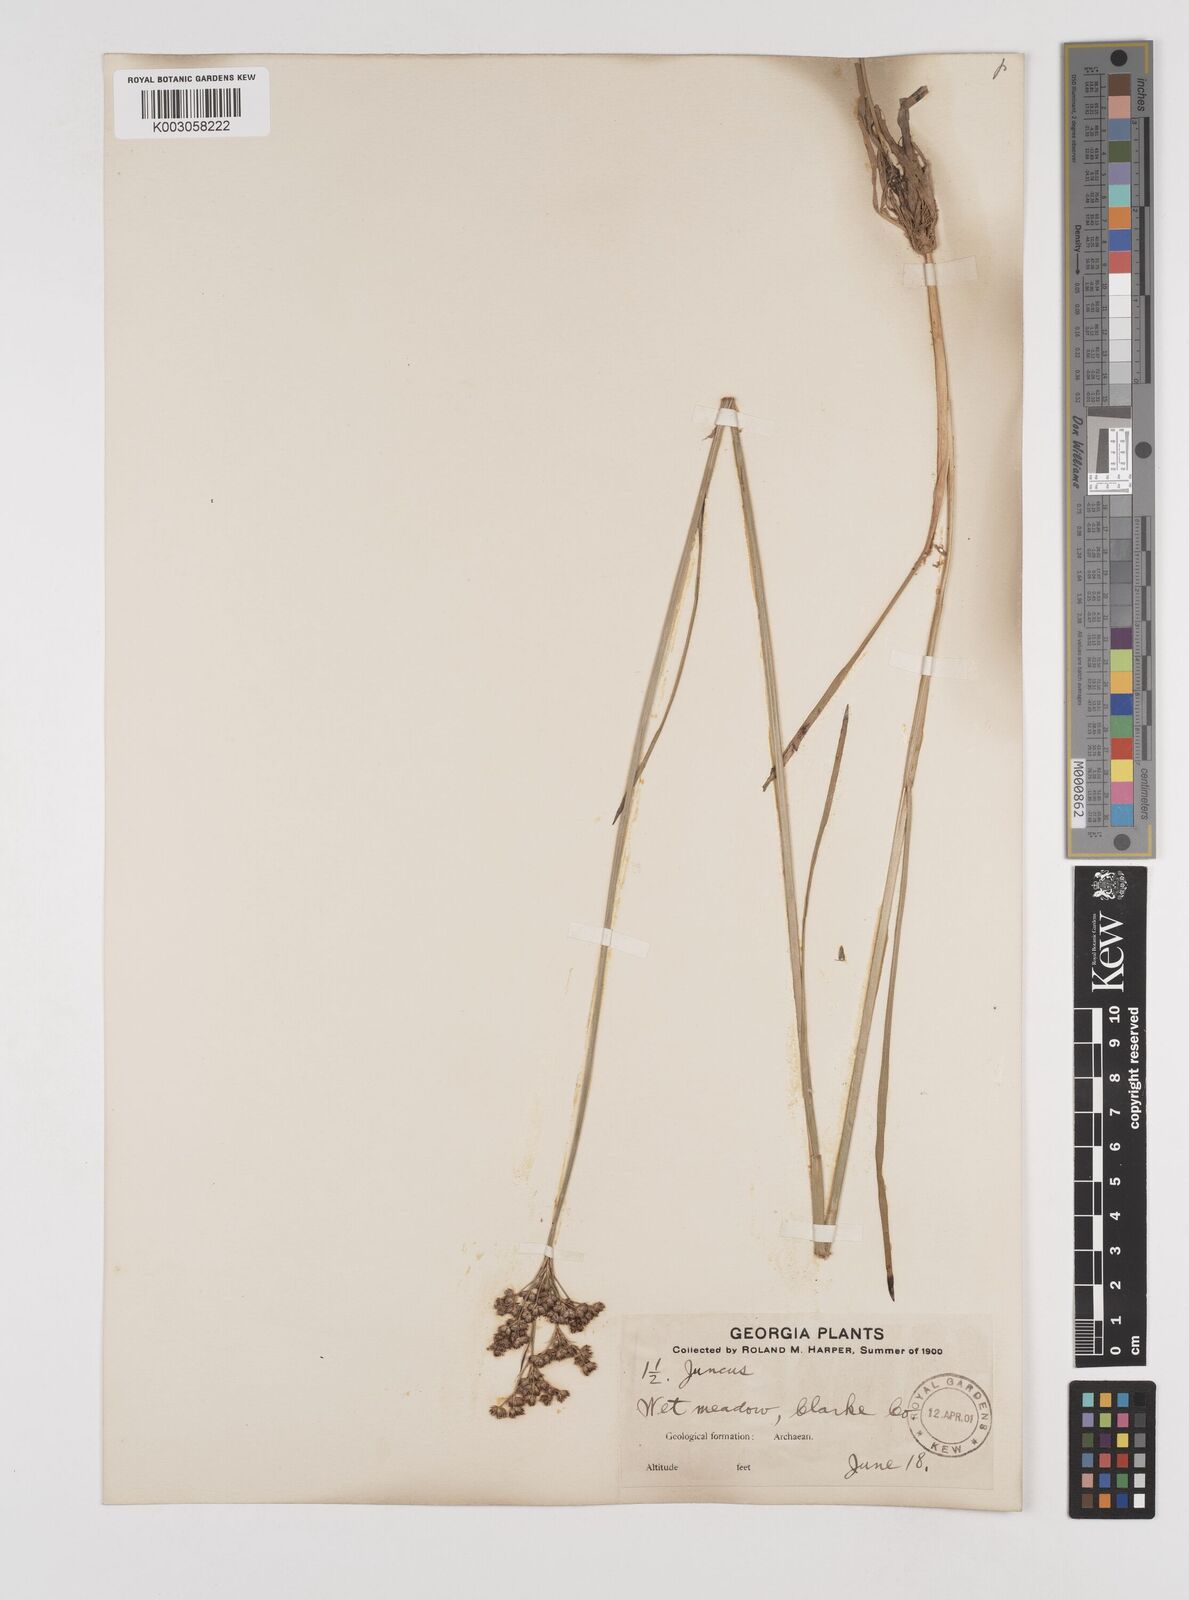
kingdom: Plantae
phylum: Tracheophyta
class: Liliopsida
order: Poales
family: Juncaceae
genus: Juncus
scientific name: Juncus
